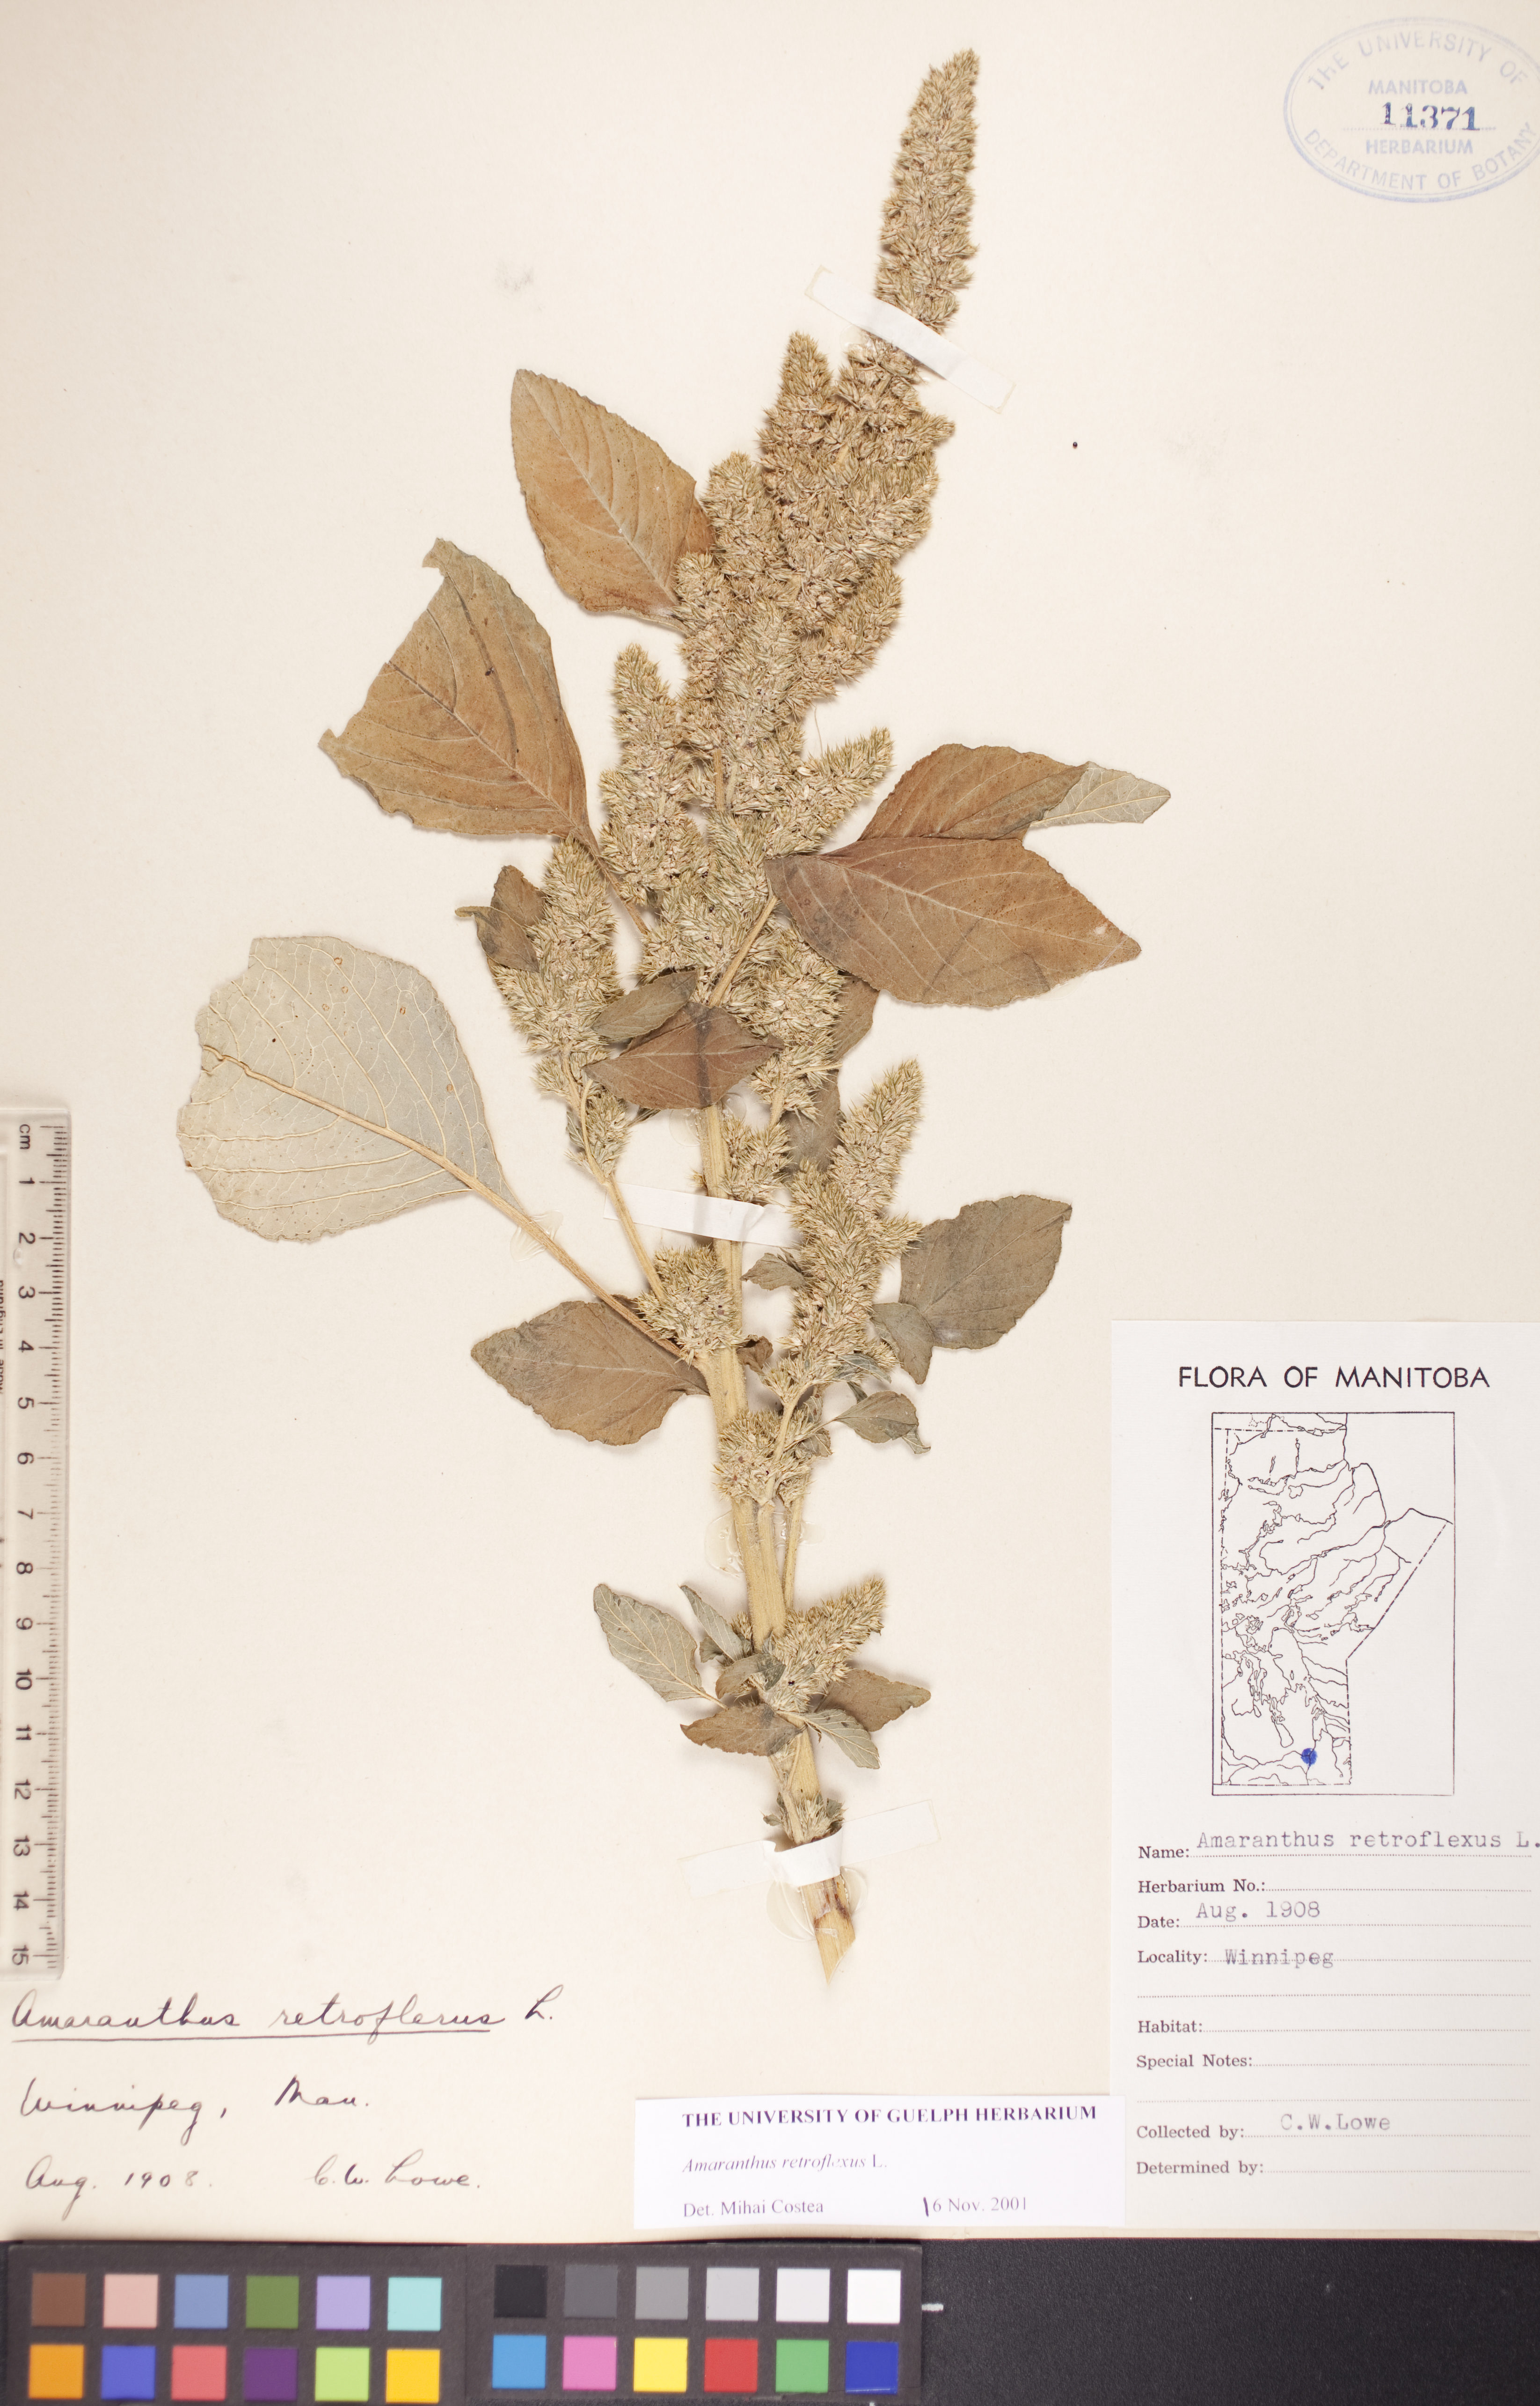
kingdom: Plantae
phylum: Tracheophyta
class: Magnoliopsida
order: Caryophyllales
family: Amaranthaceae
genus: Amaranthus
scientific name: Amaranthus retroflexus
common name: Redroot amaranth
